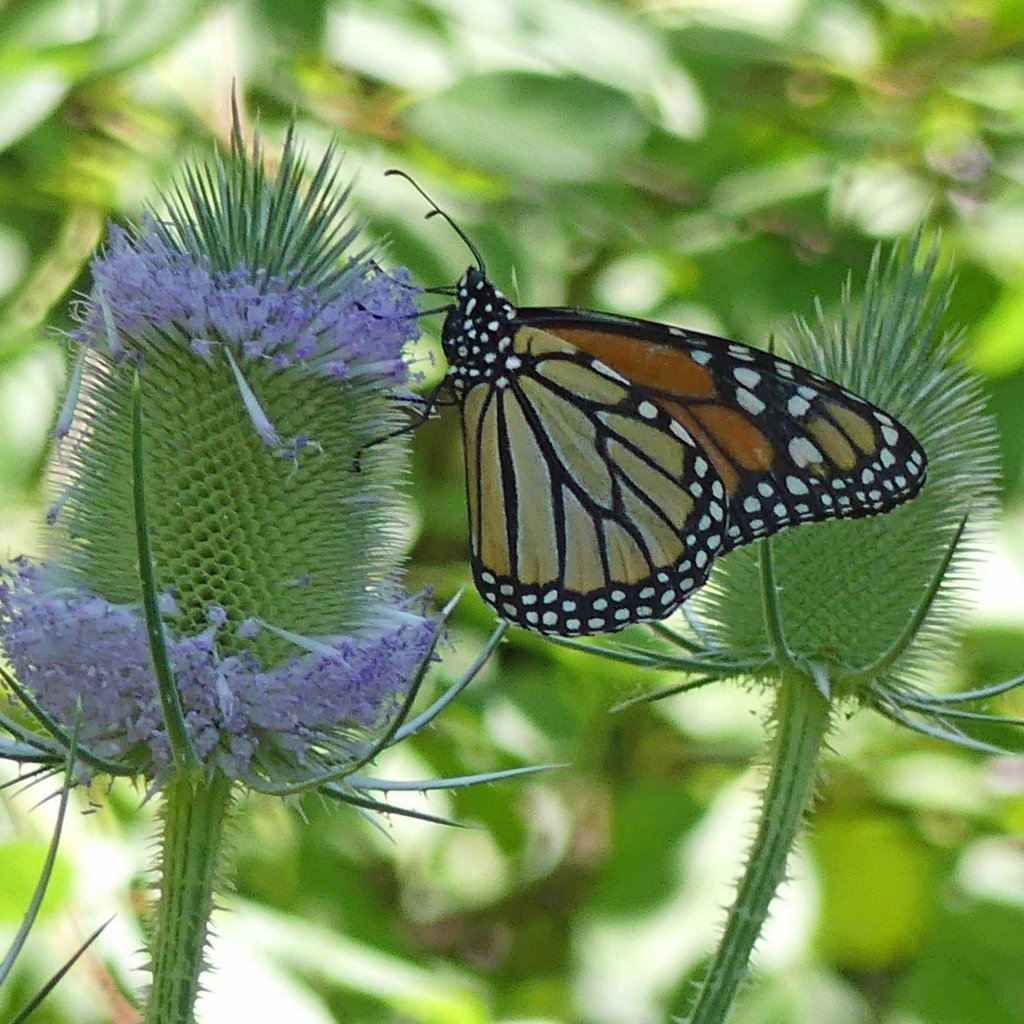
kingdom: Animalia
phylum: Arthropoda
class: Insecta
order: Lepidoptera
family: Nymphalidae
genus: Danaus
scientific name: Danaus plexippus
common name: Monarch
